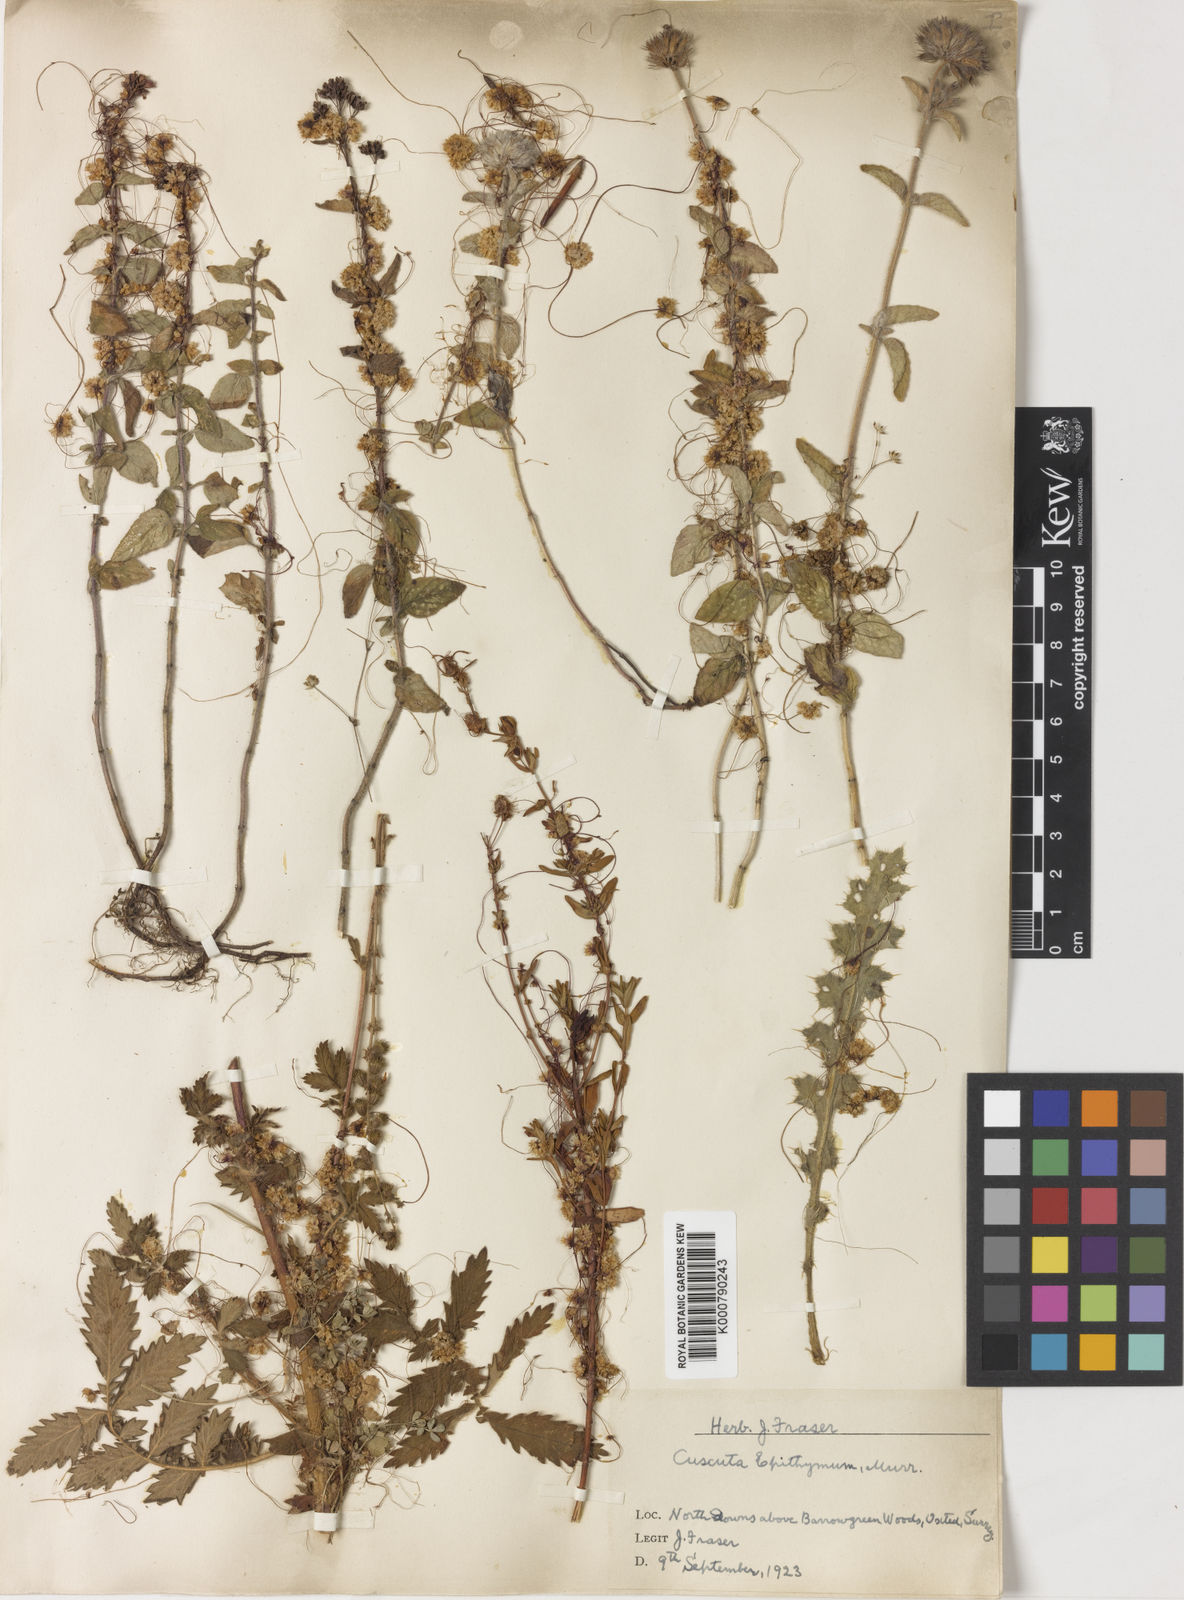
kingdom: Plantae
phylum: Tracheophyta
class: Magnoliopsida
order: Solanales
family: Convolvulaceae
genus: Cuscuta
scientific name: Cuscuta epithymum
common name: Clover dodder
